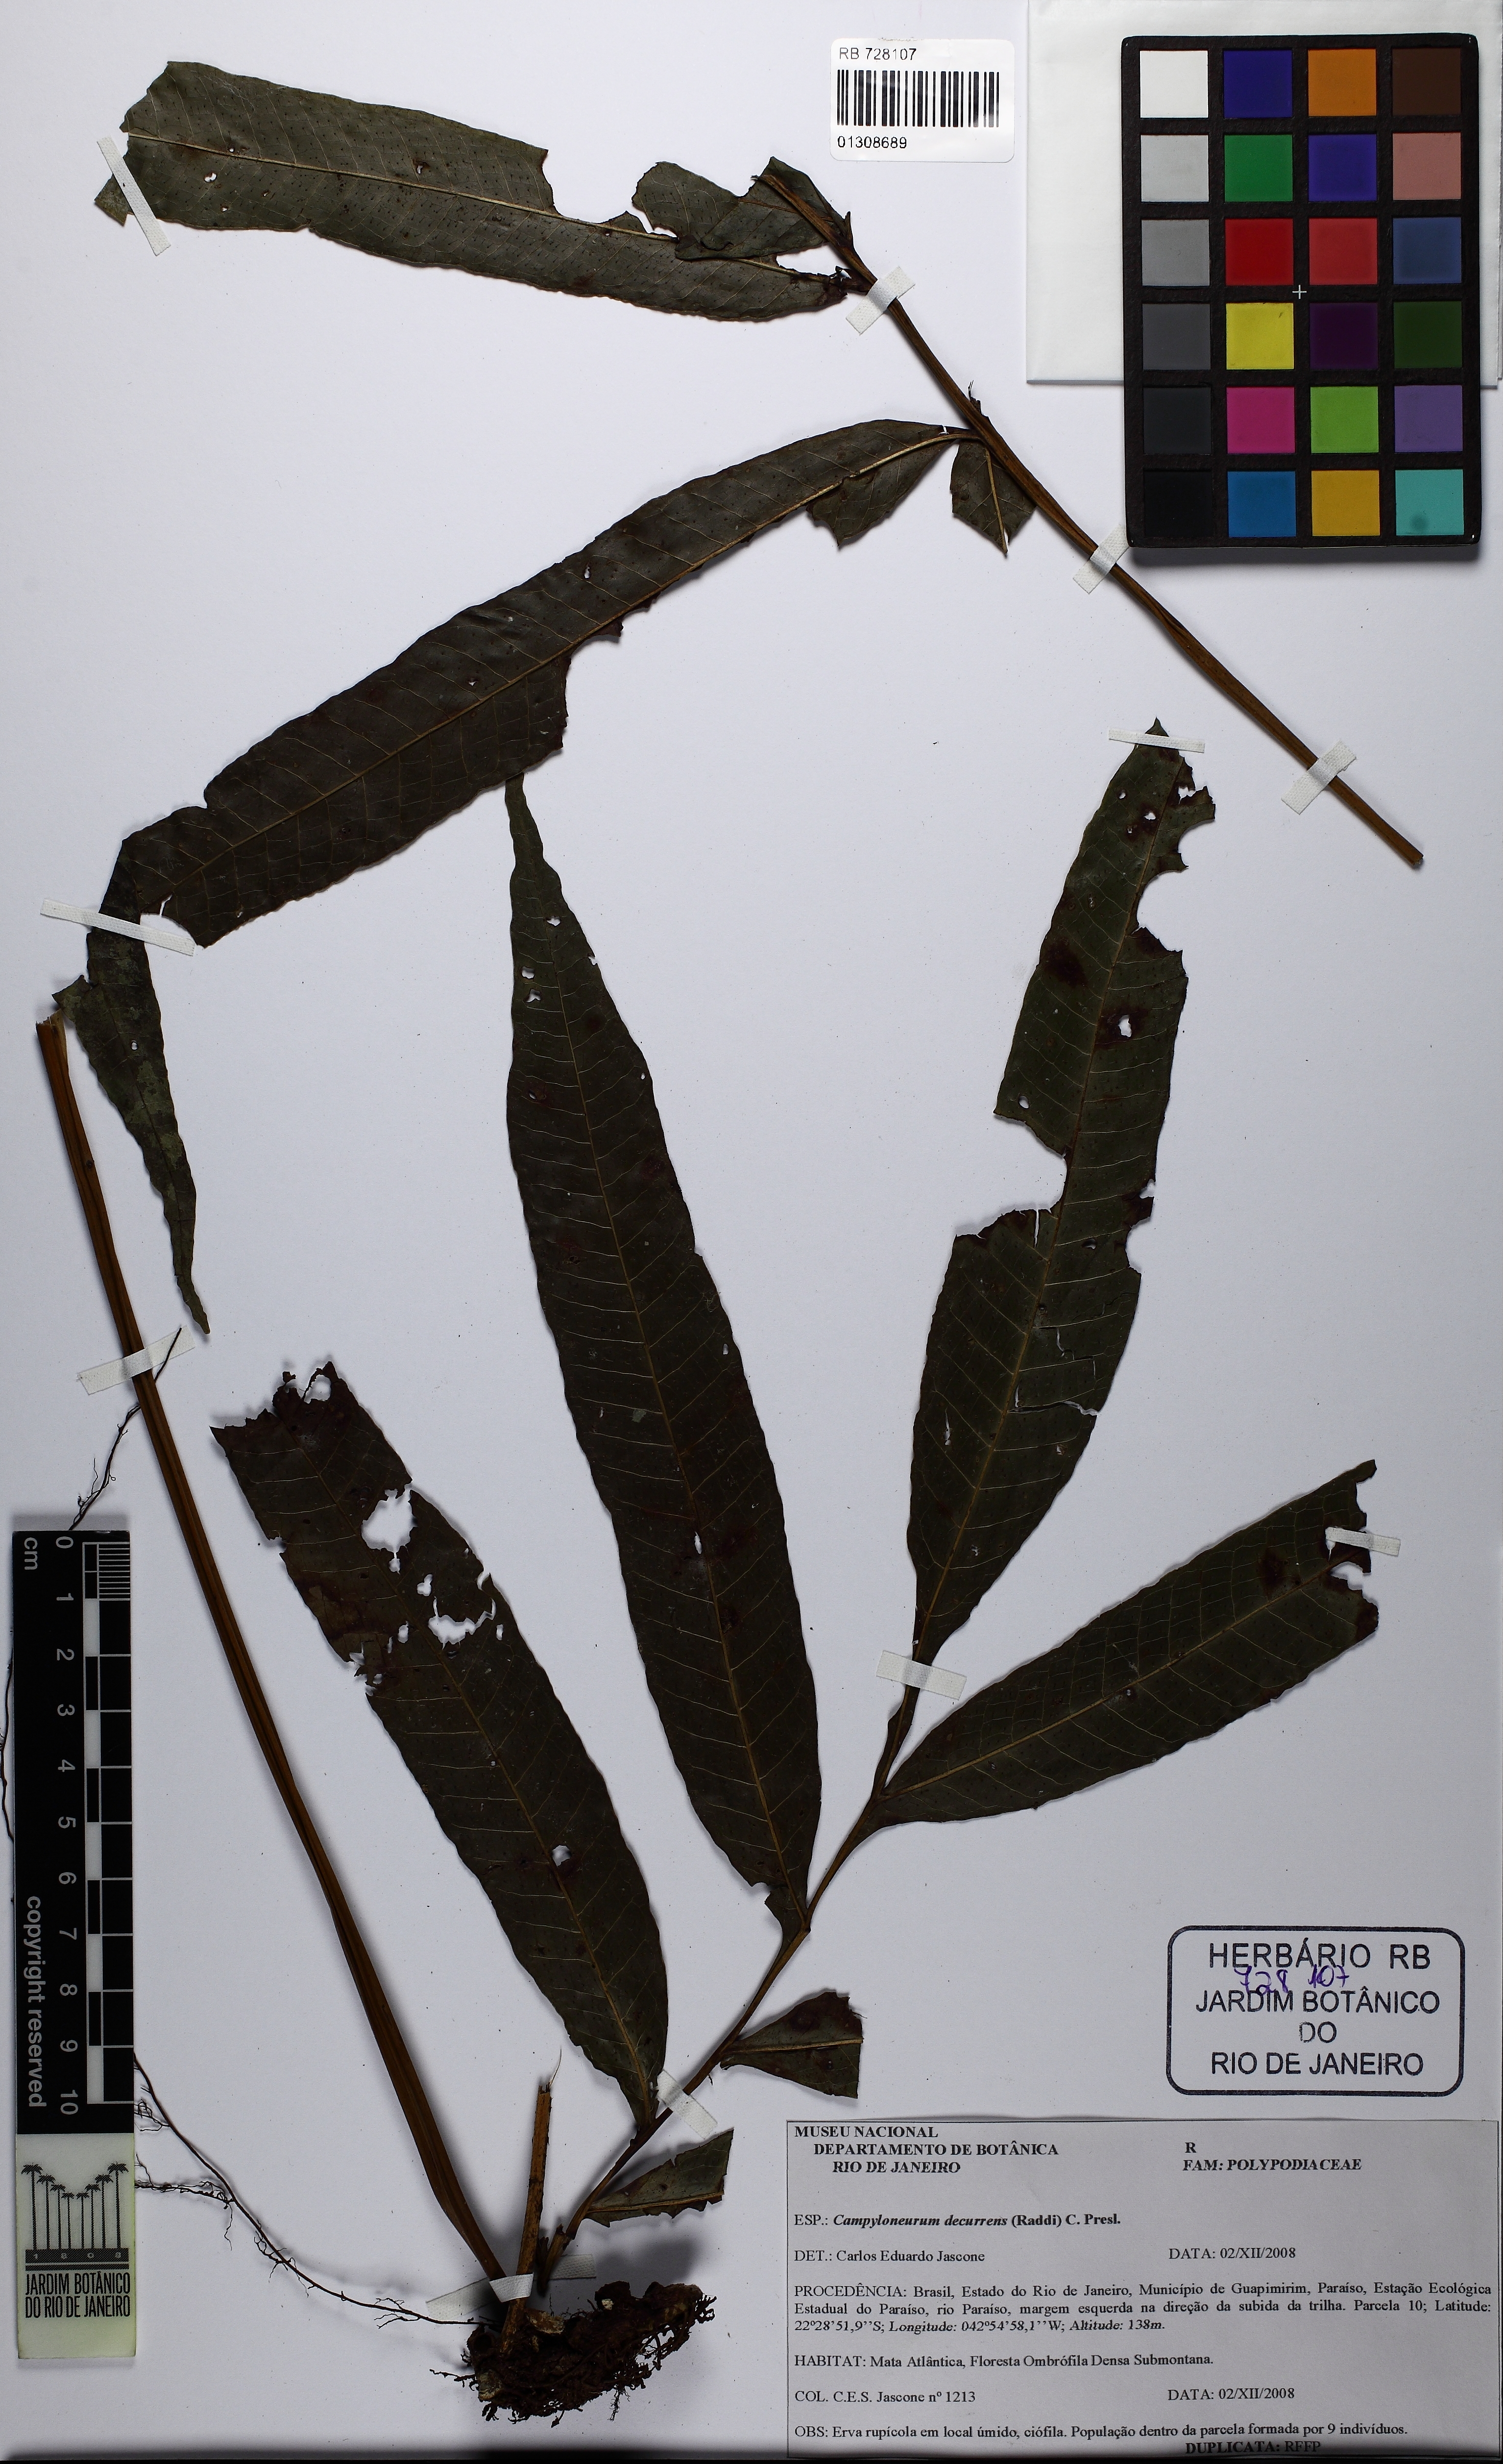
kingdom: Plantae
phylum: Tracheophyta
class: Polypodiopsida
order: Polypodiales
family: Polypodiaceae
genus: Campyloneurum
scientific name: Campyloneurum decurrens
